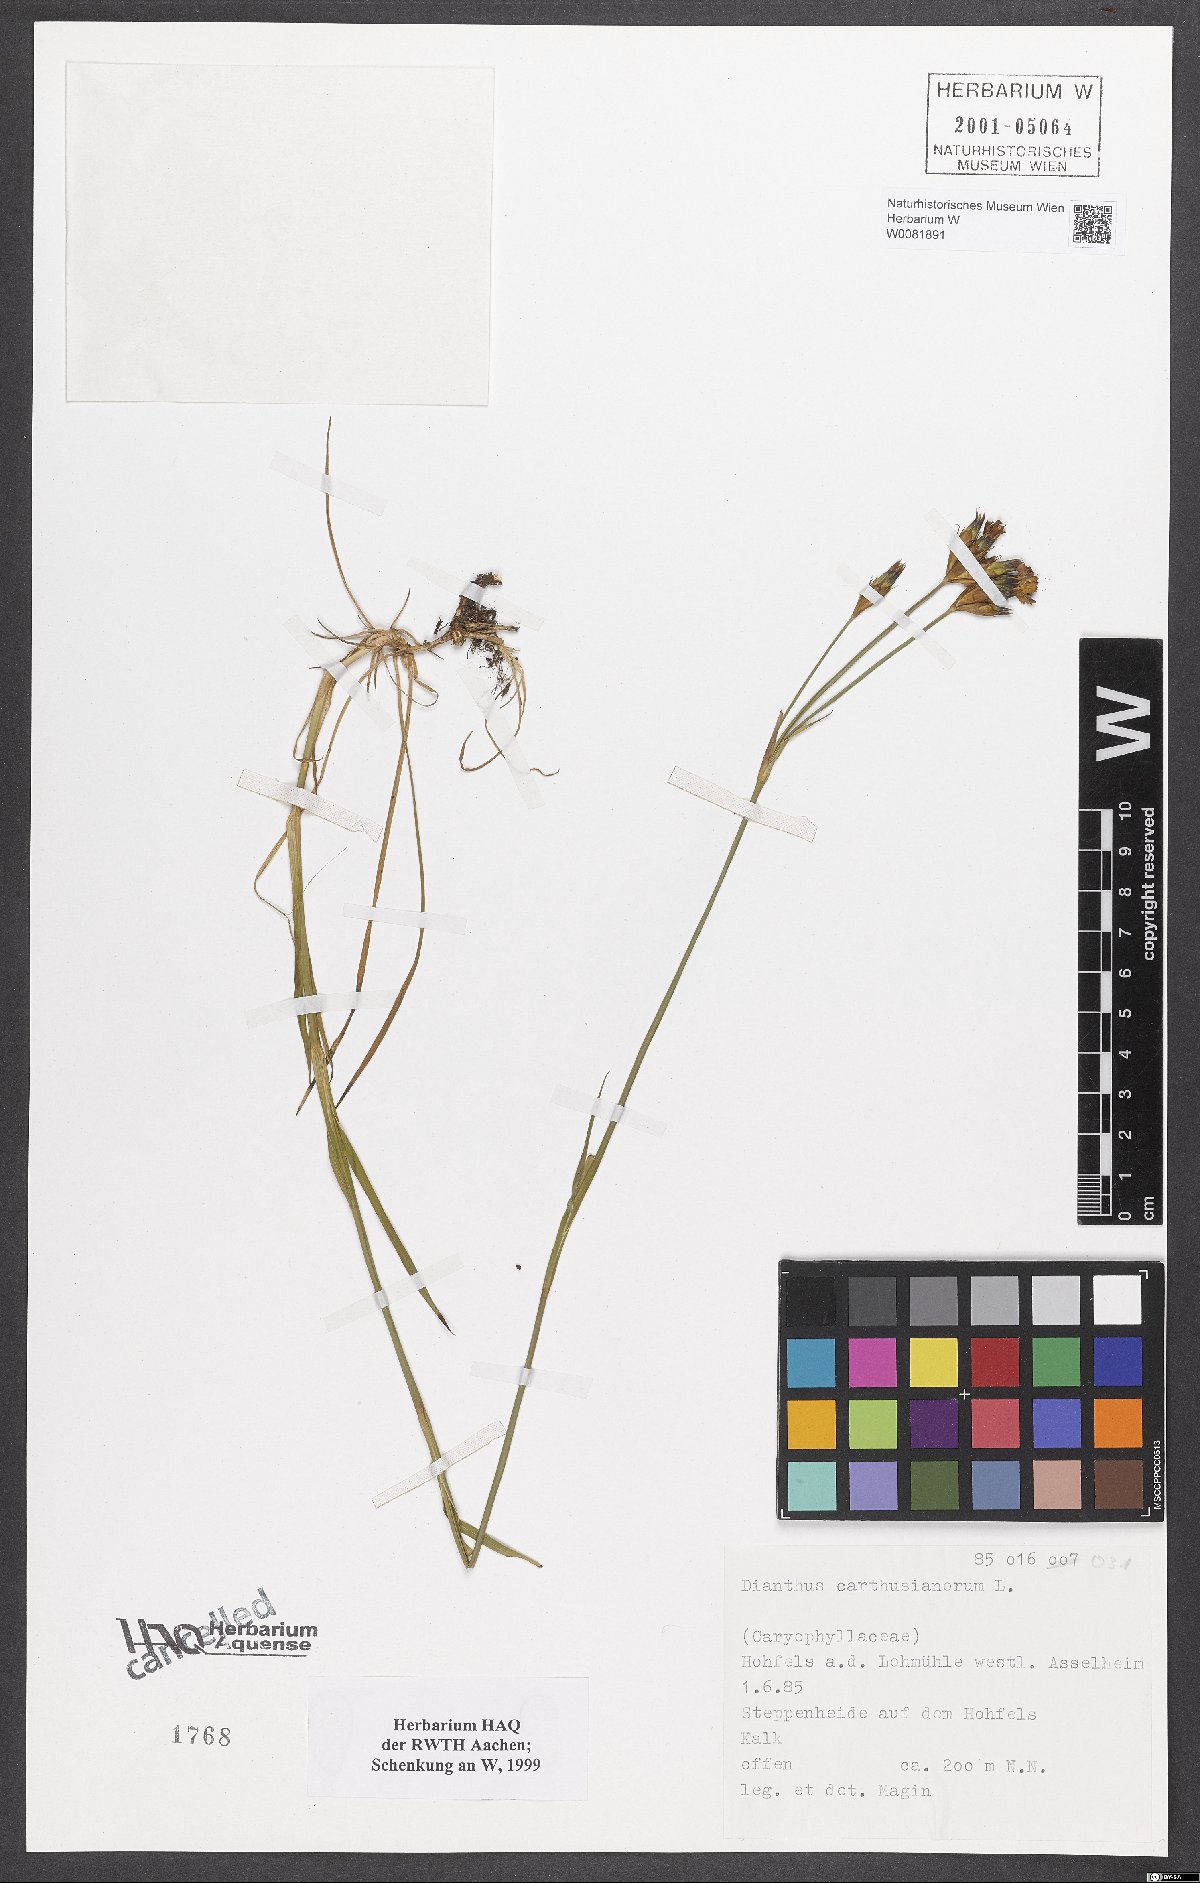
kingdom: Plantae
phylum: Tracheophyta
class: Magnoliopsida
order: Caryophyllales
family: Caryophyllaceae
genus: Dianthus
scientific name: Dianthus carthusianorum
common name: Carthusian pink
